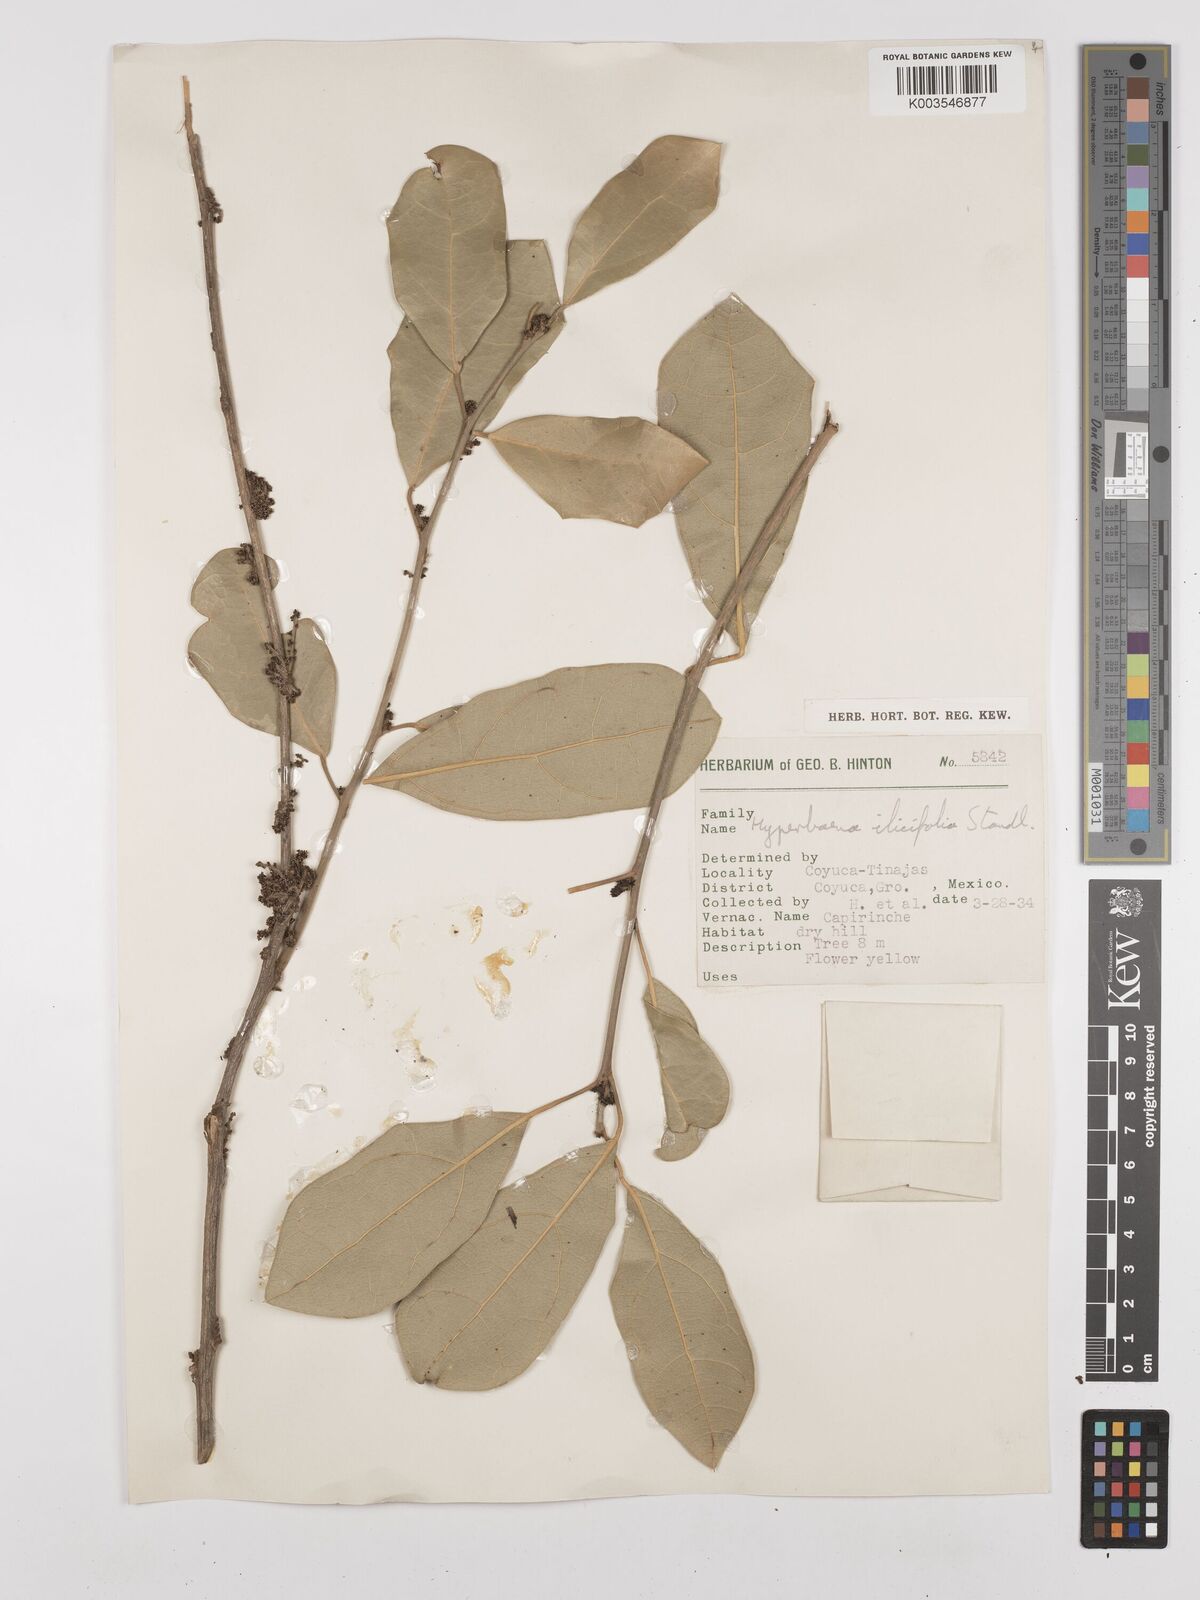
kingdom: Plantae
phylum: Tracheophyta
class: Magnoliopsida
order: Ranunculales
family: Menispermaceae
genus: Hyperbaena
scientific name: Hyperbaena ilicifolia
